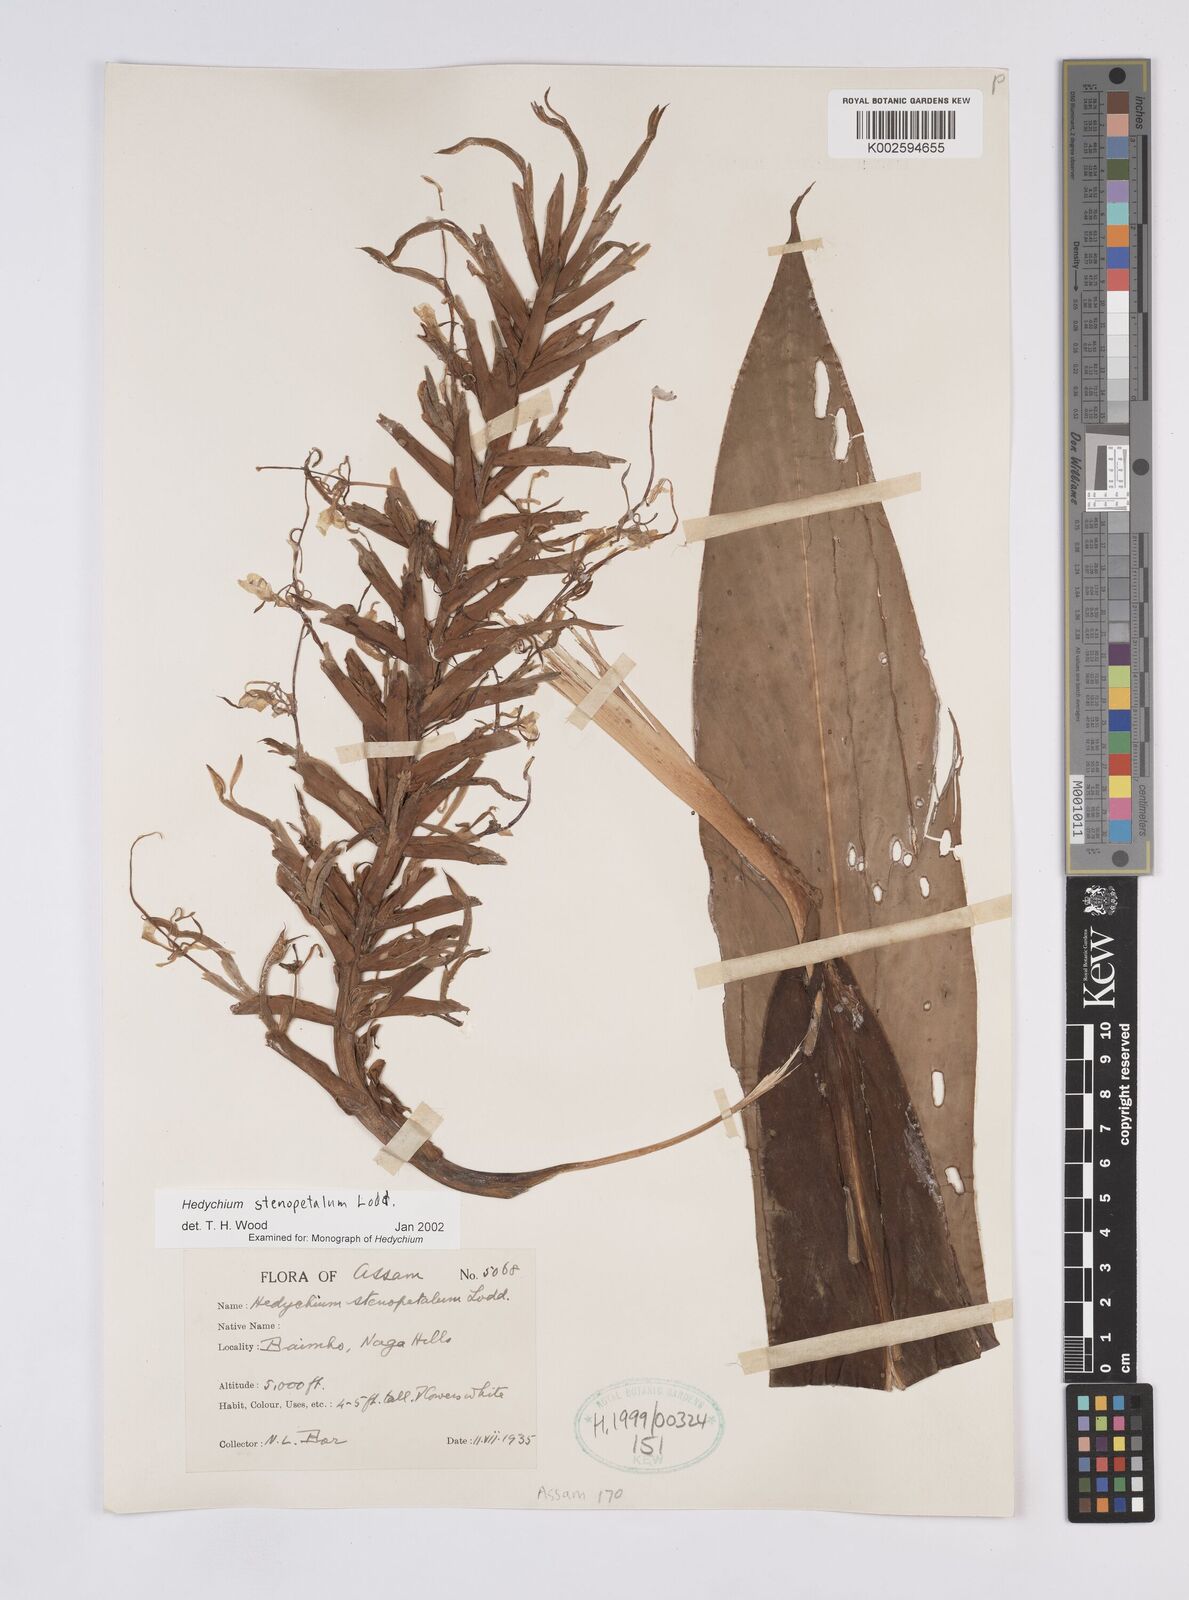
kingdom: Plantae
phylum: Tracheophyta
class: Liliopsida
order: Zingiberales
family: Zingiberaceae
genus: Hedychium
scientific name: Hedychium stenopetalum
